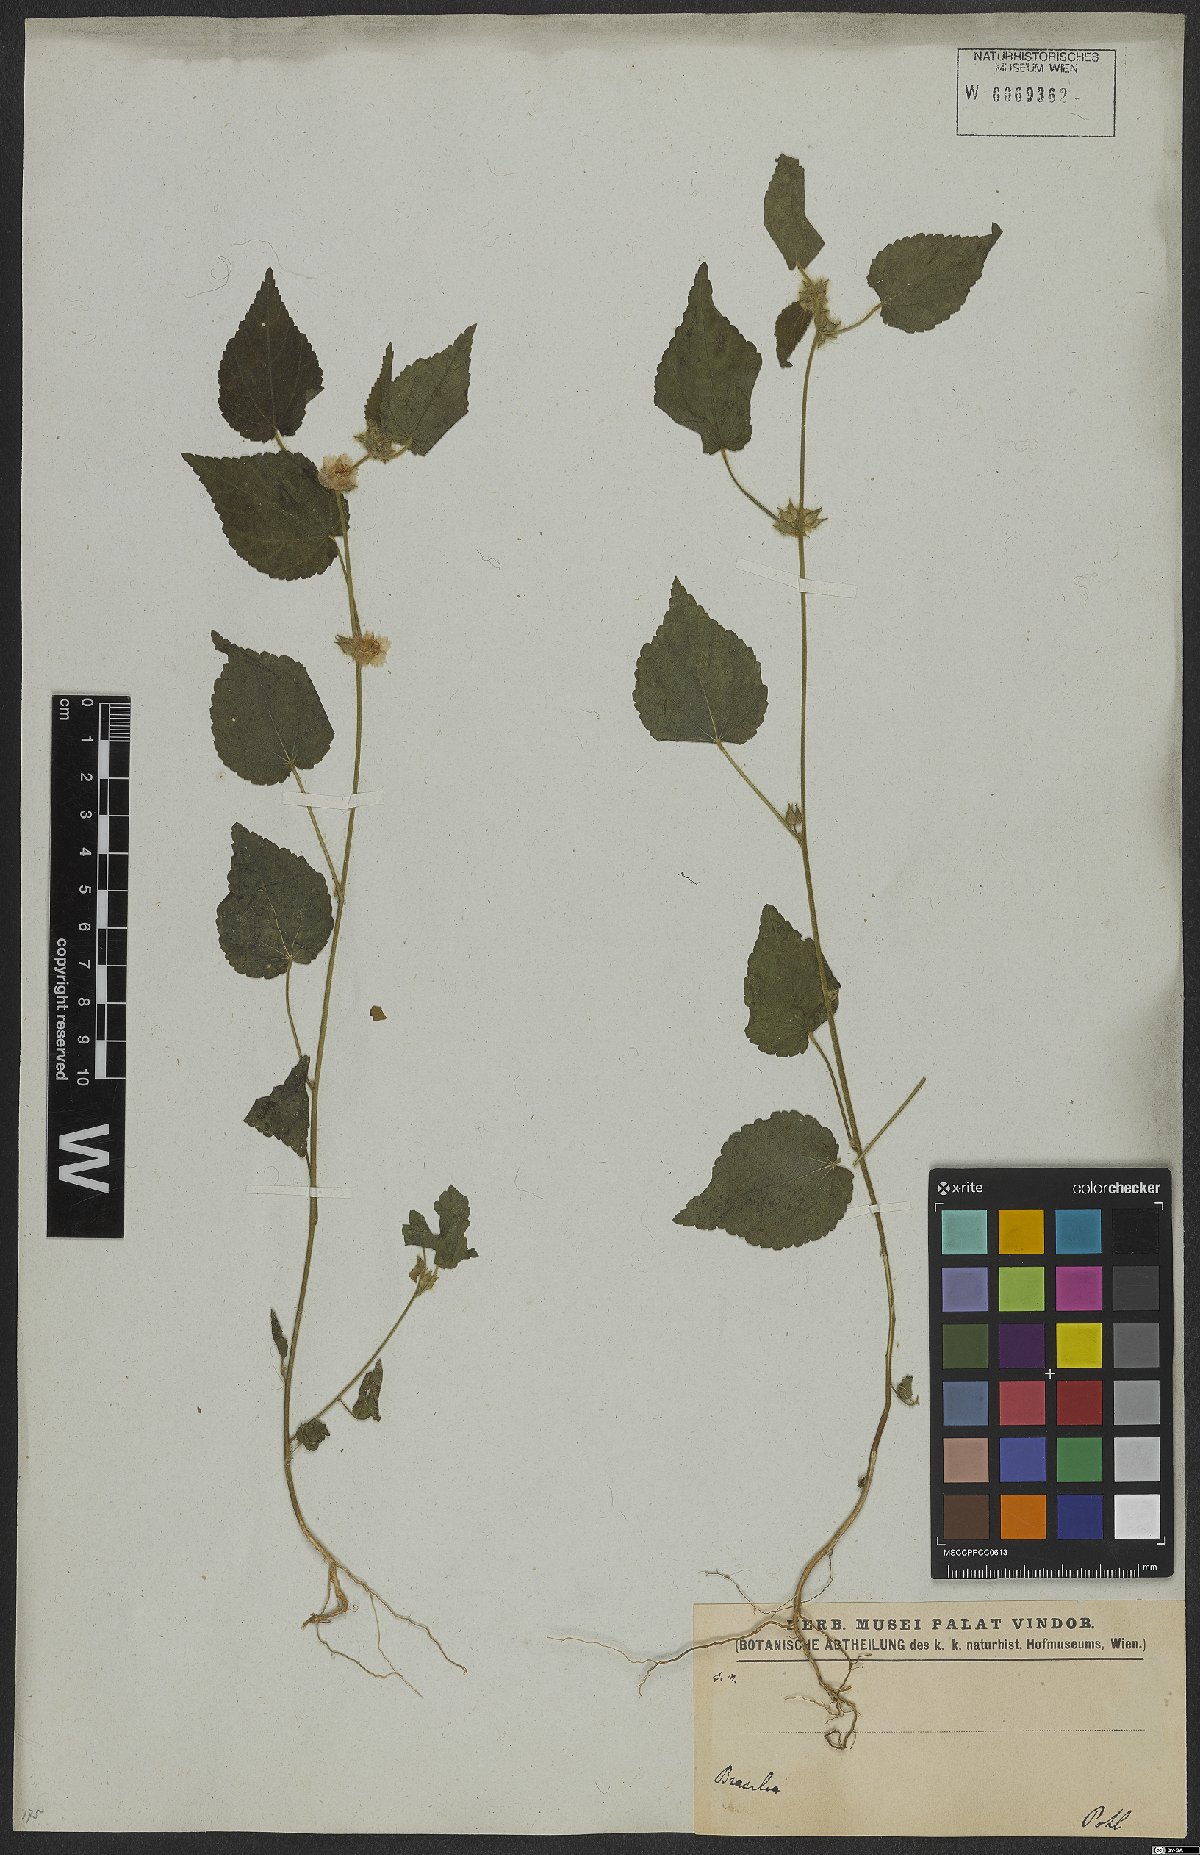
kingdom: Plantae
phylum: Tracheophyta
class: Magnoliopsida
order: Malvales
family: Malvaceae
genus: Sida
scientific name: Sida urens
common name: Tropical fanpetals
